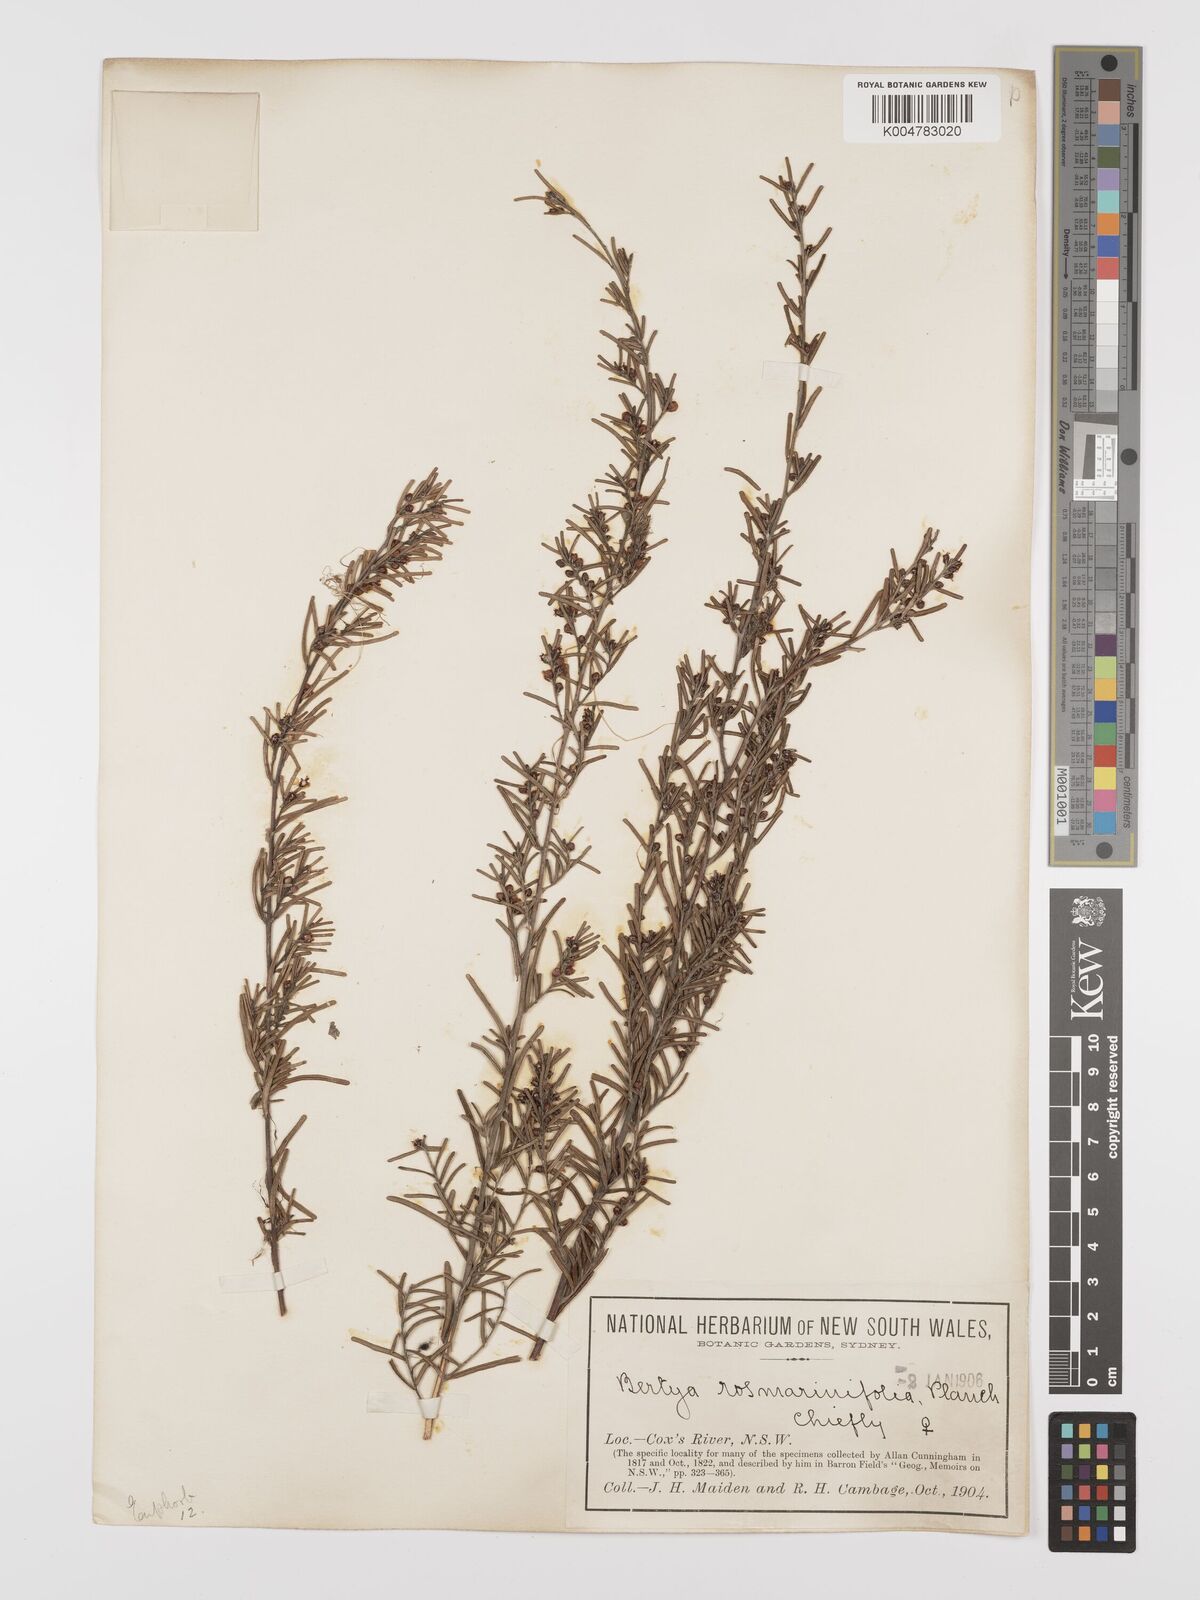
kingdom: Plantae
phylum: Tracheophyta
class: Magnoliopsida
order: Malpighiales
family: Euphorbiaceae
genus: Bertya
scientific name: Bertya rosmarinifolia
